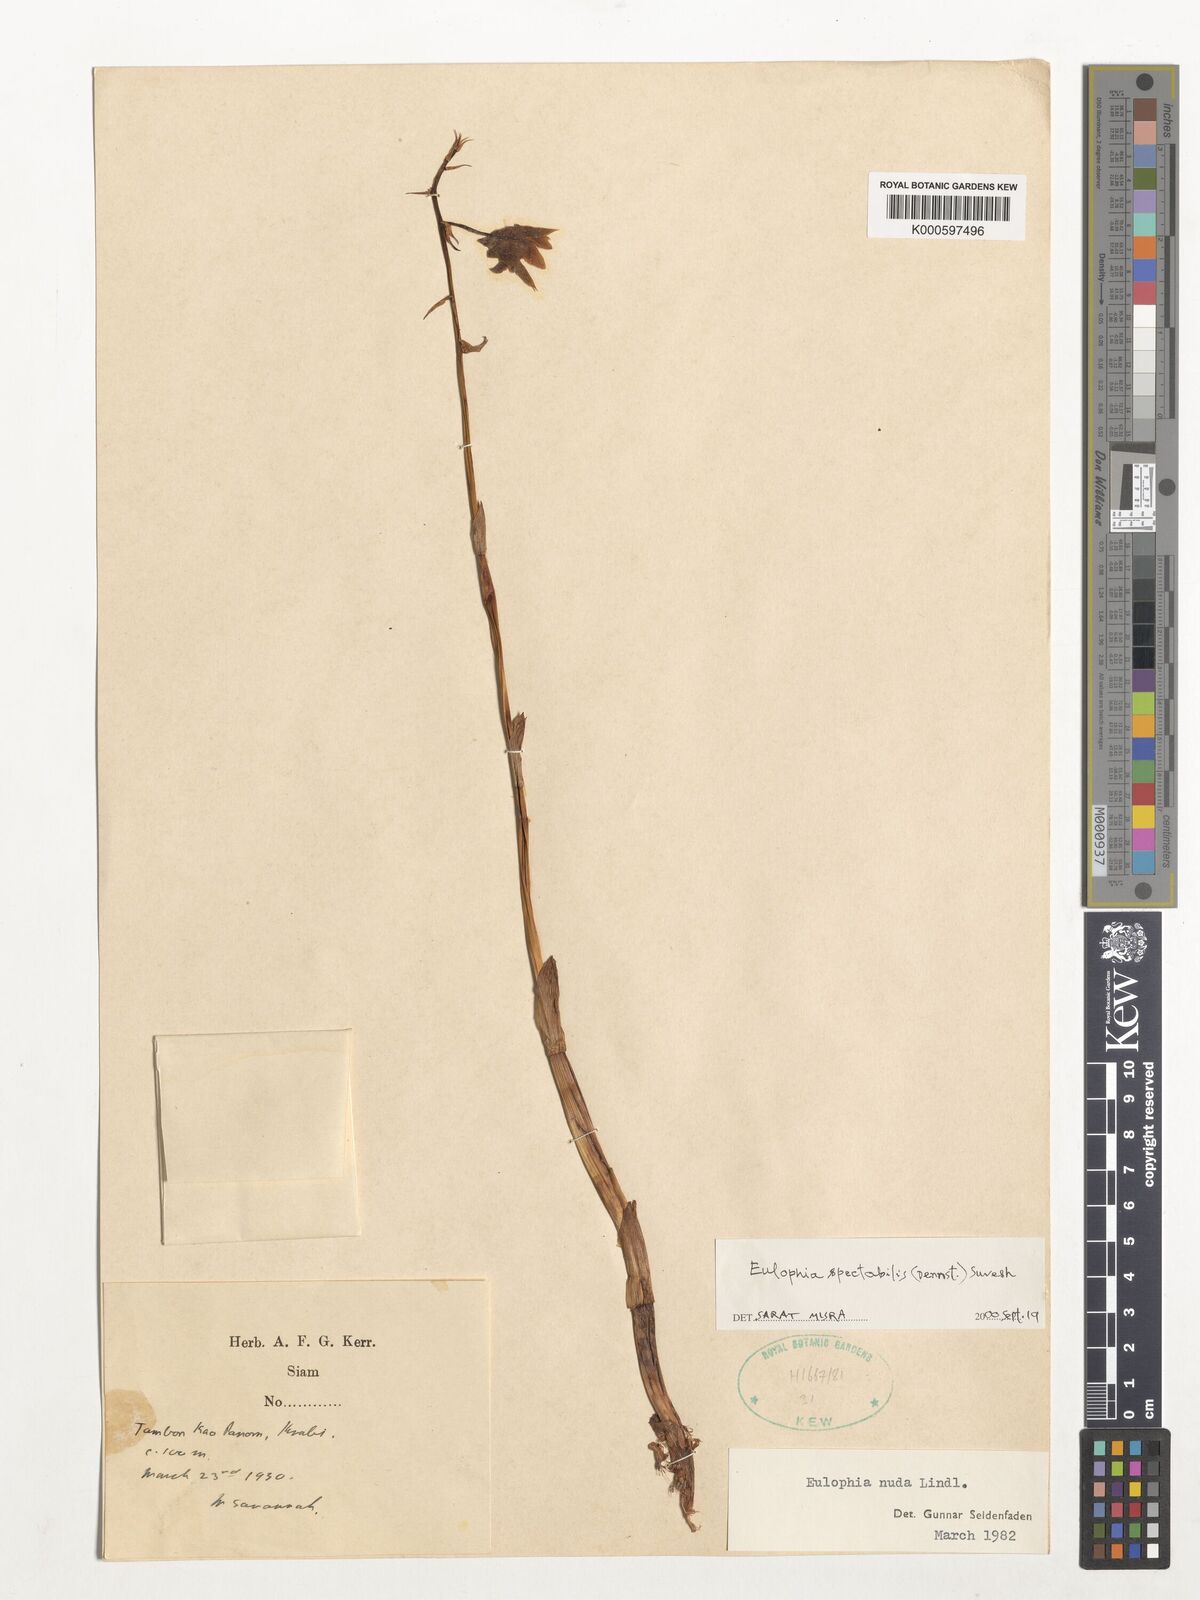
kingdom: Plantae
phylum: Tracheophyta
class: Liliopsida
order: Asparagales
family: Orchidaceae
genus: Eulophia
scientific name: Eulophia nuda
